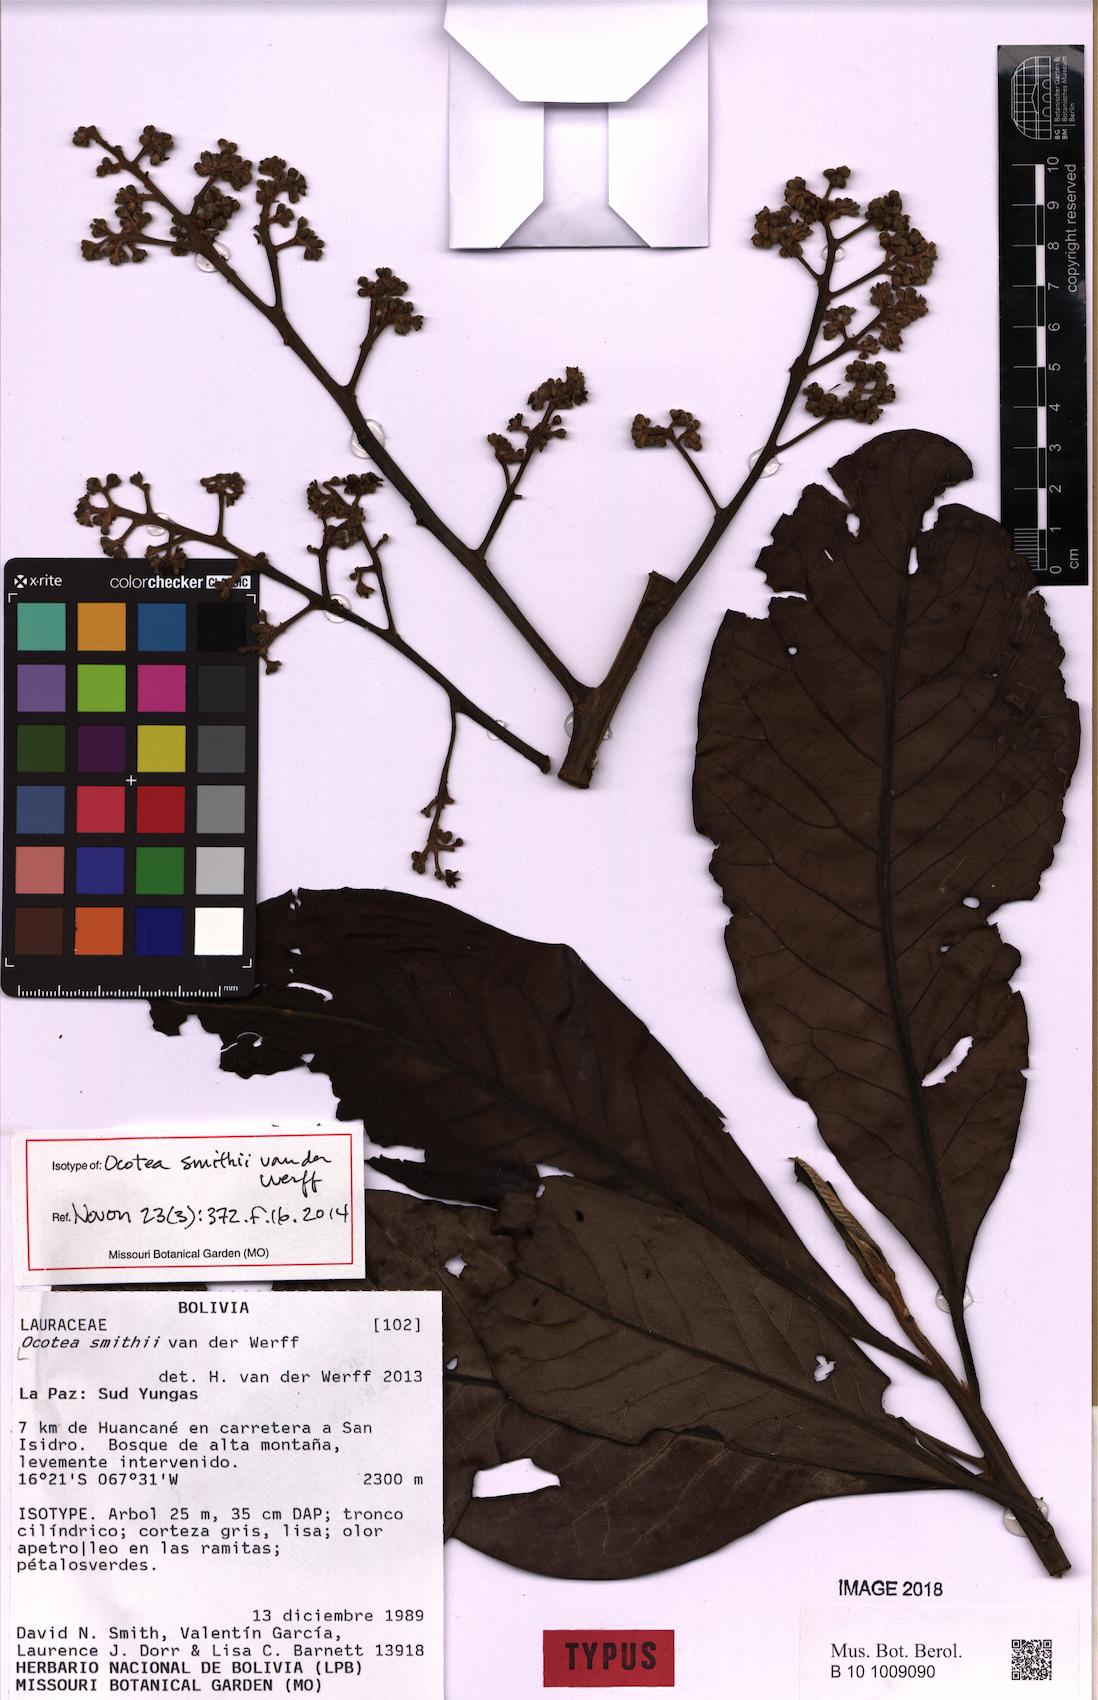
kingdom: Plantae
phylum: Tracheophyta
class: Magnoliopsida
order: Laurales
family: Lauraceae
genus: Ocotea
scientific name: Ocotea smithii
